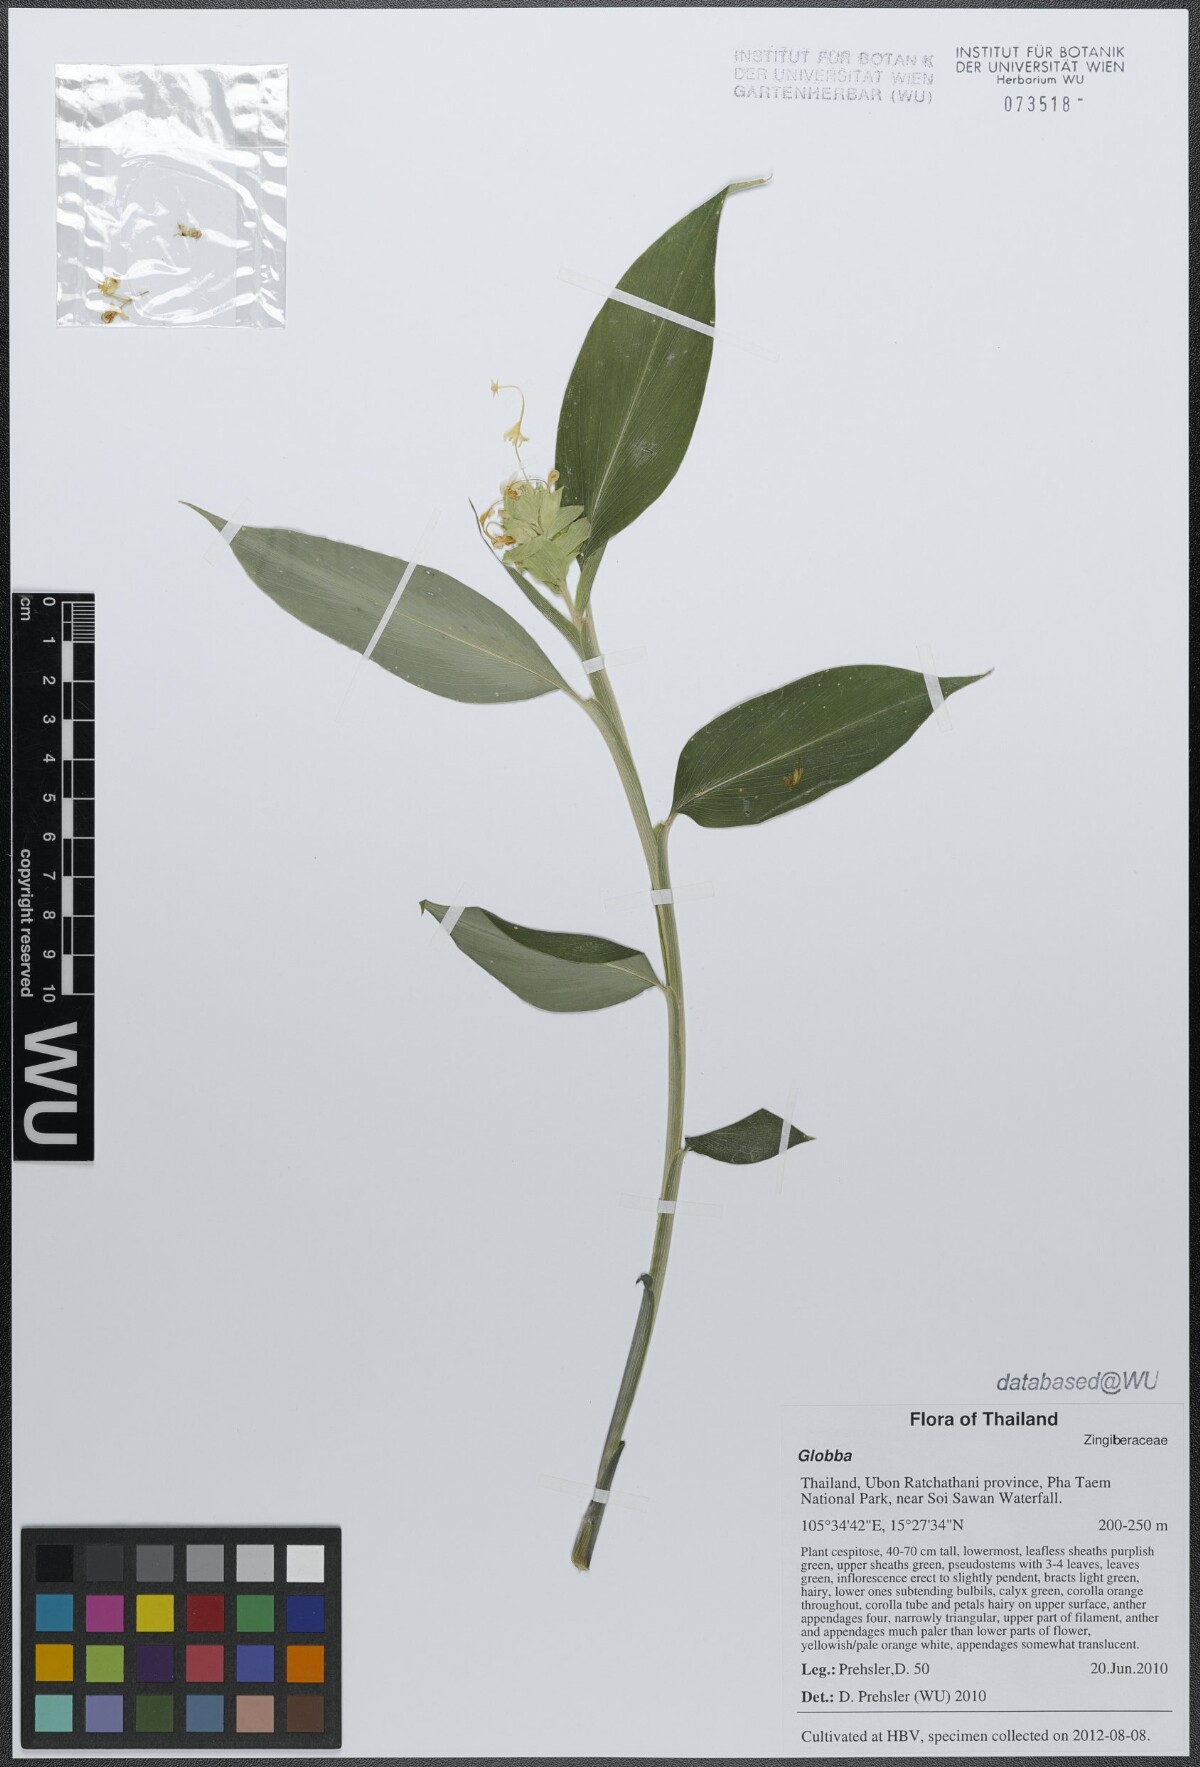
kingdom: Plantae
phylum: Tracheophyta
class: Liliopsida
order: Zingiberales
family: Zingiberaceae
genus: Globba
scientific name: Globba
